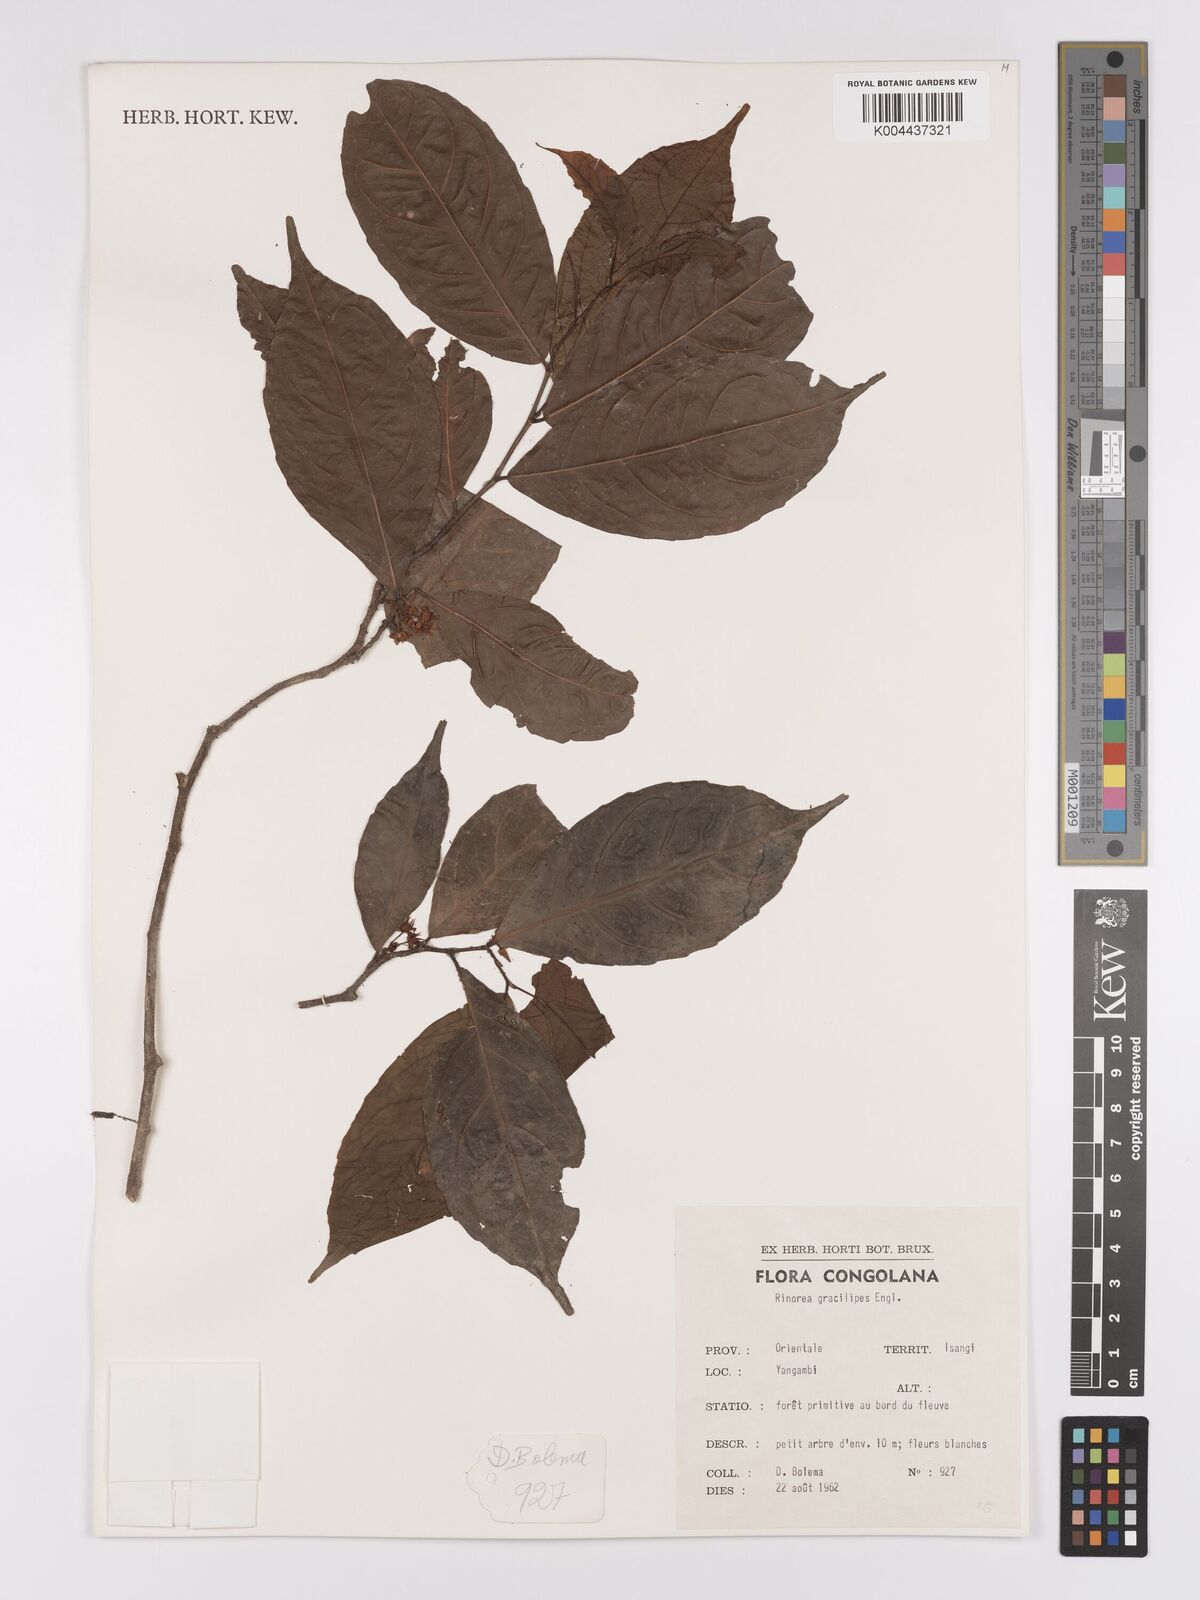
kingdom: Plantae
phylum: Tracheophyta
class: Magnoliopsida
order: Malpighiales
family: Violaceae
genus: Rinorea
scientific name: Rinorea angustifolia
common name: White violet-bush
